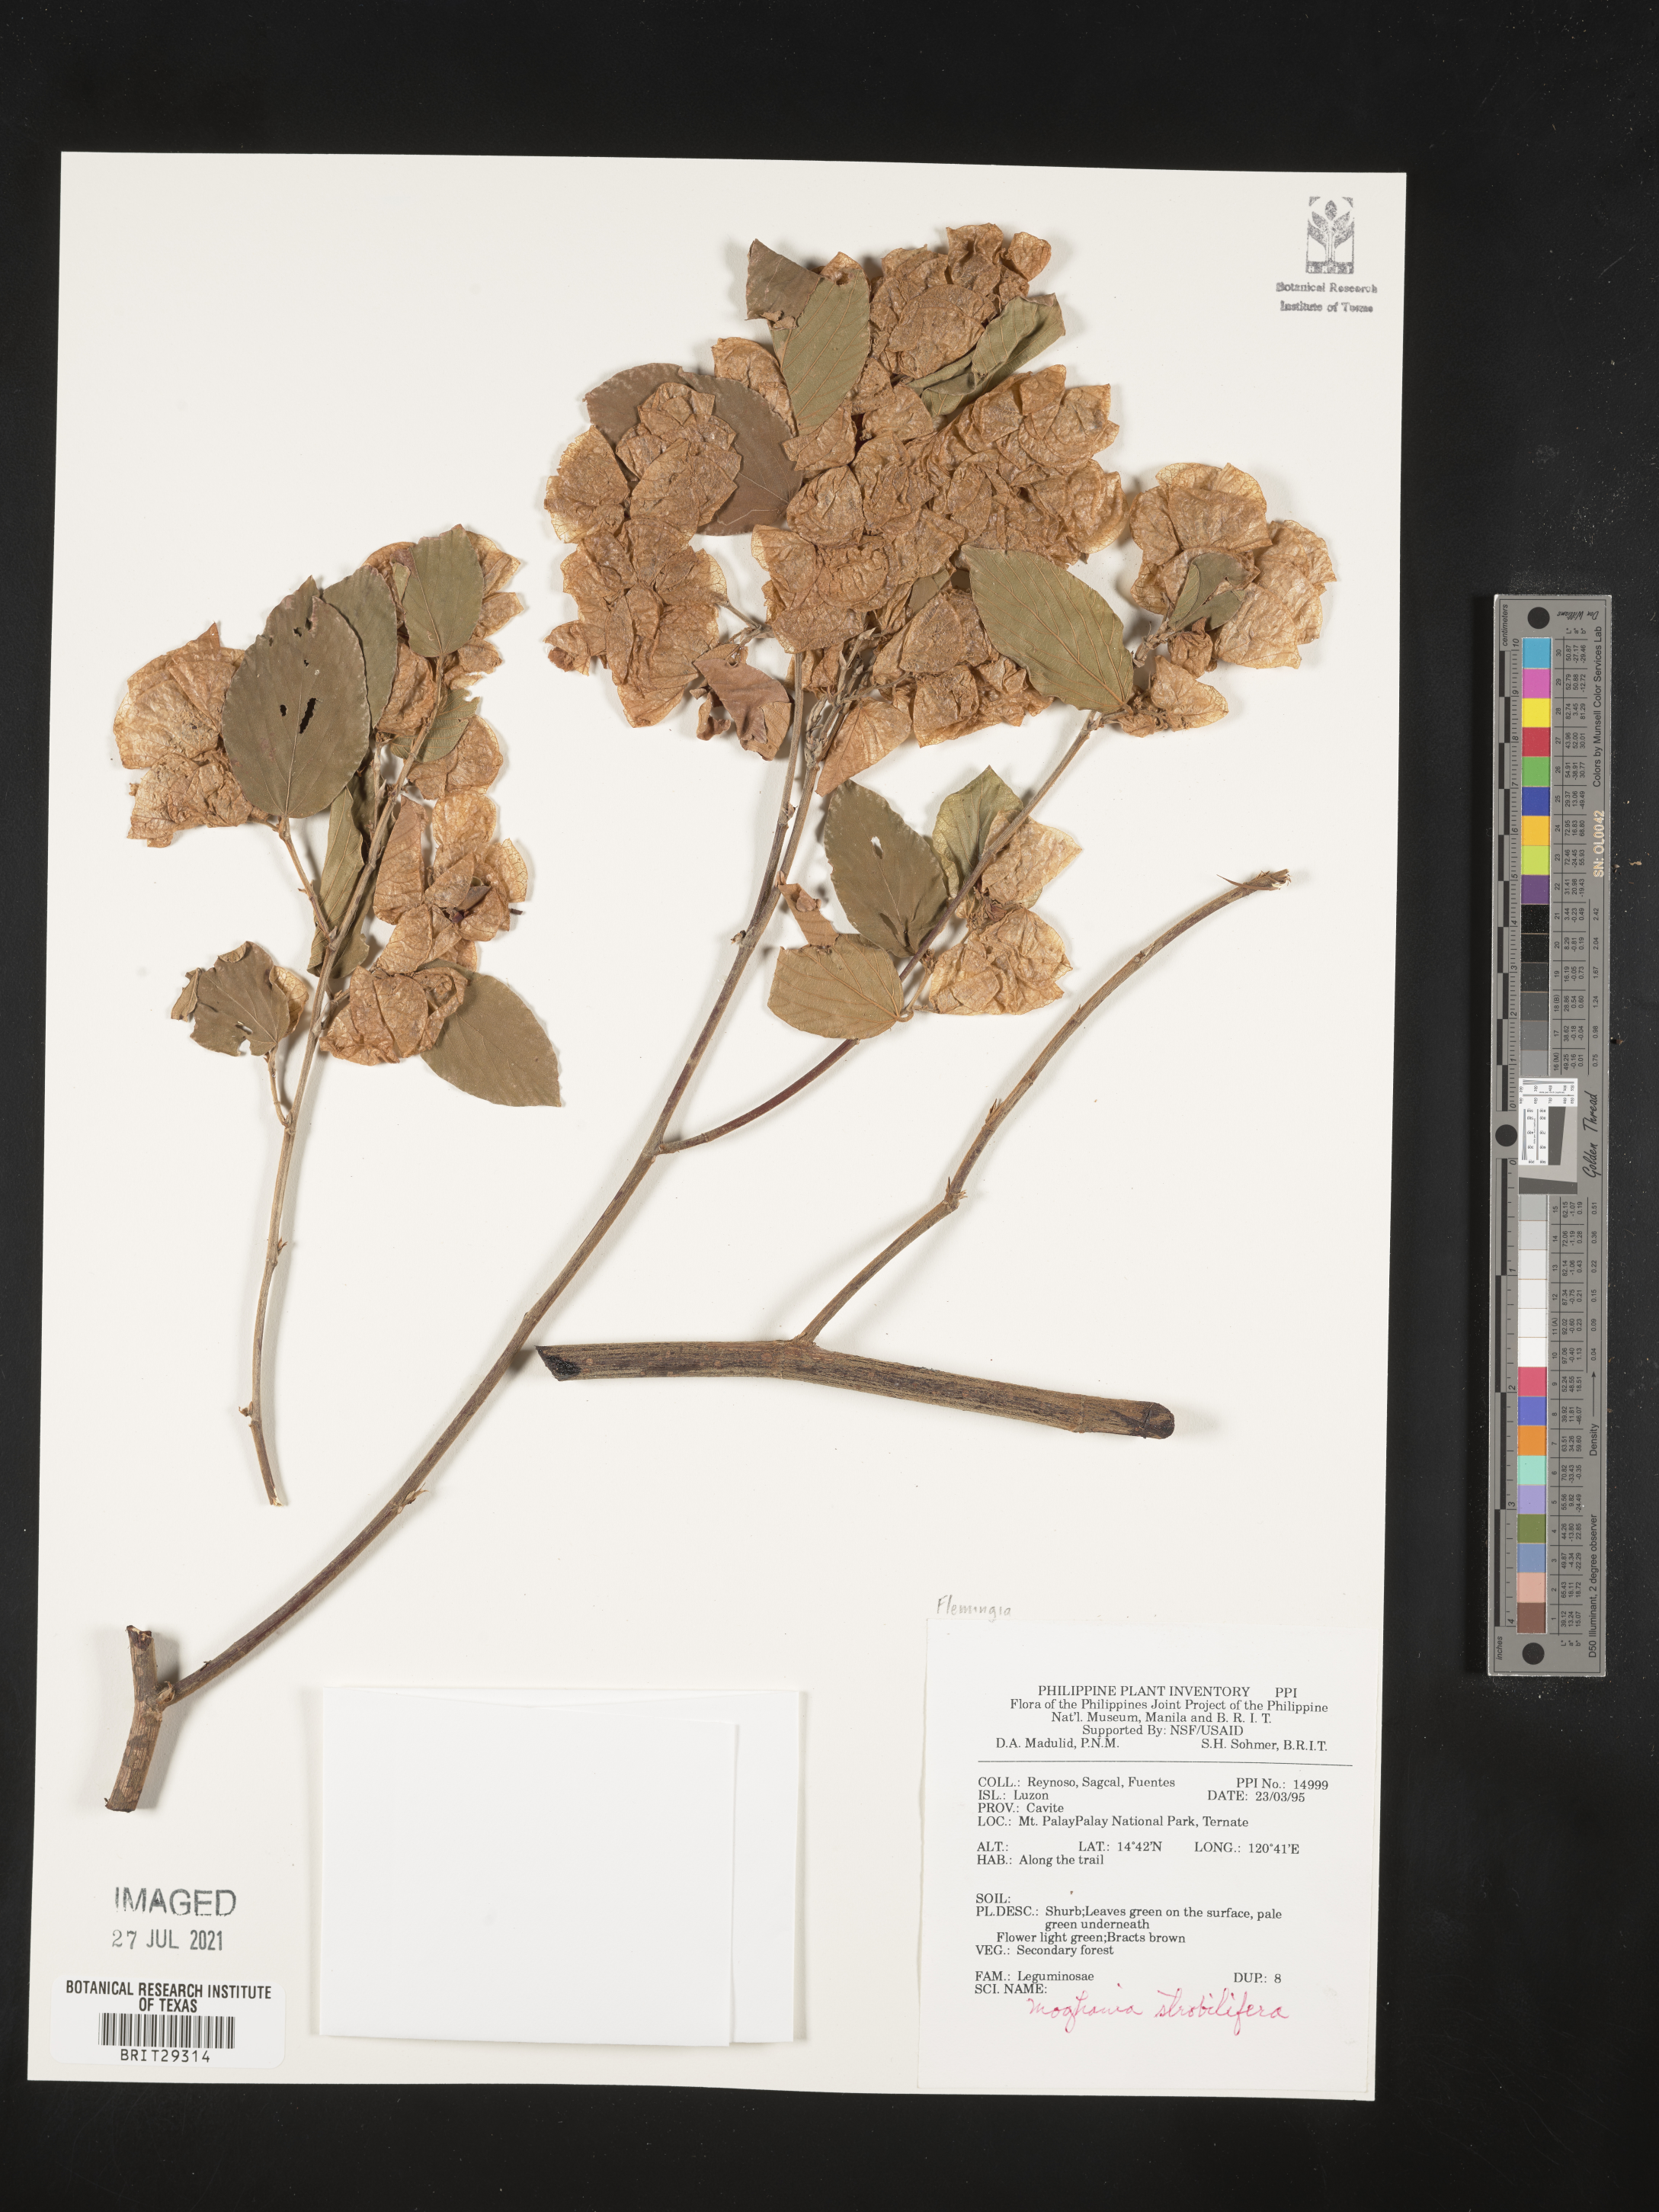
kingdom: Plantae
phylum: Tracheophyta
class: Magnoliopsida
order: Fabales
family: Fabaceae
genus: Flemingia
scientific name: Flemingia
